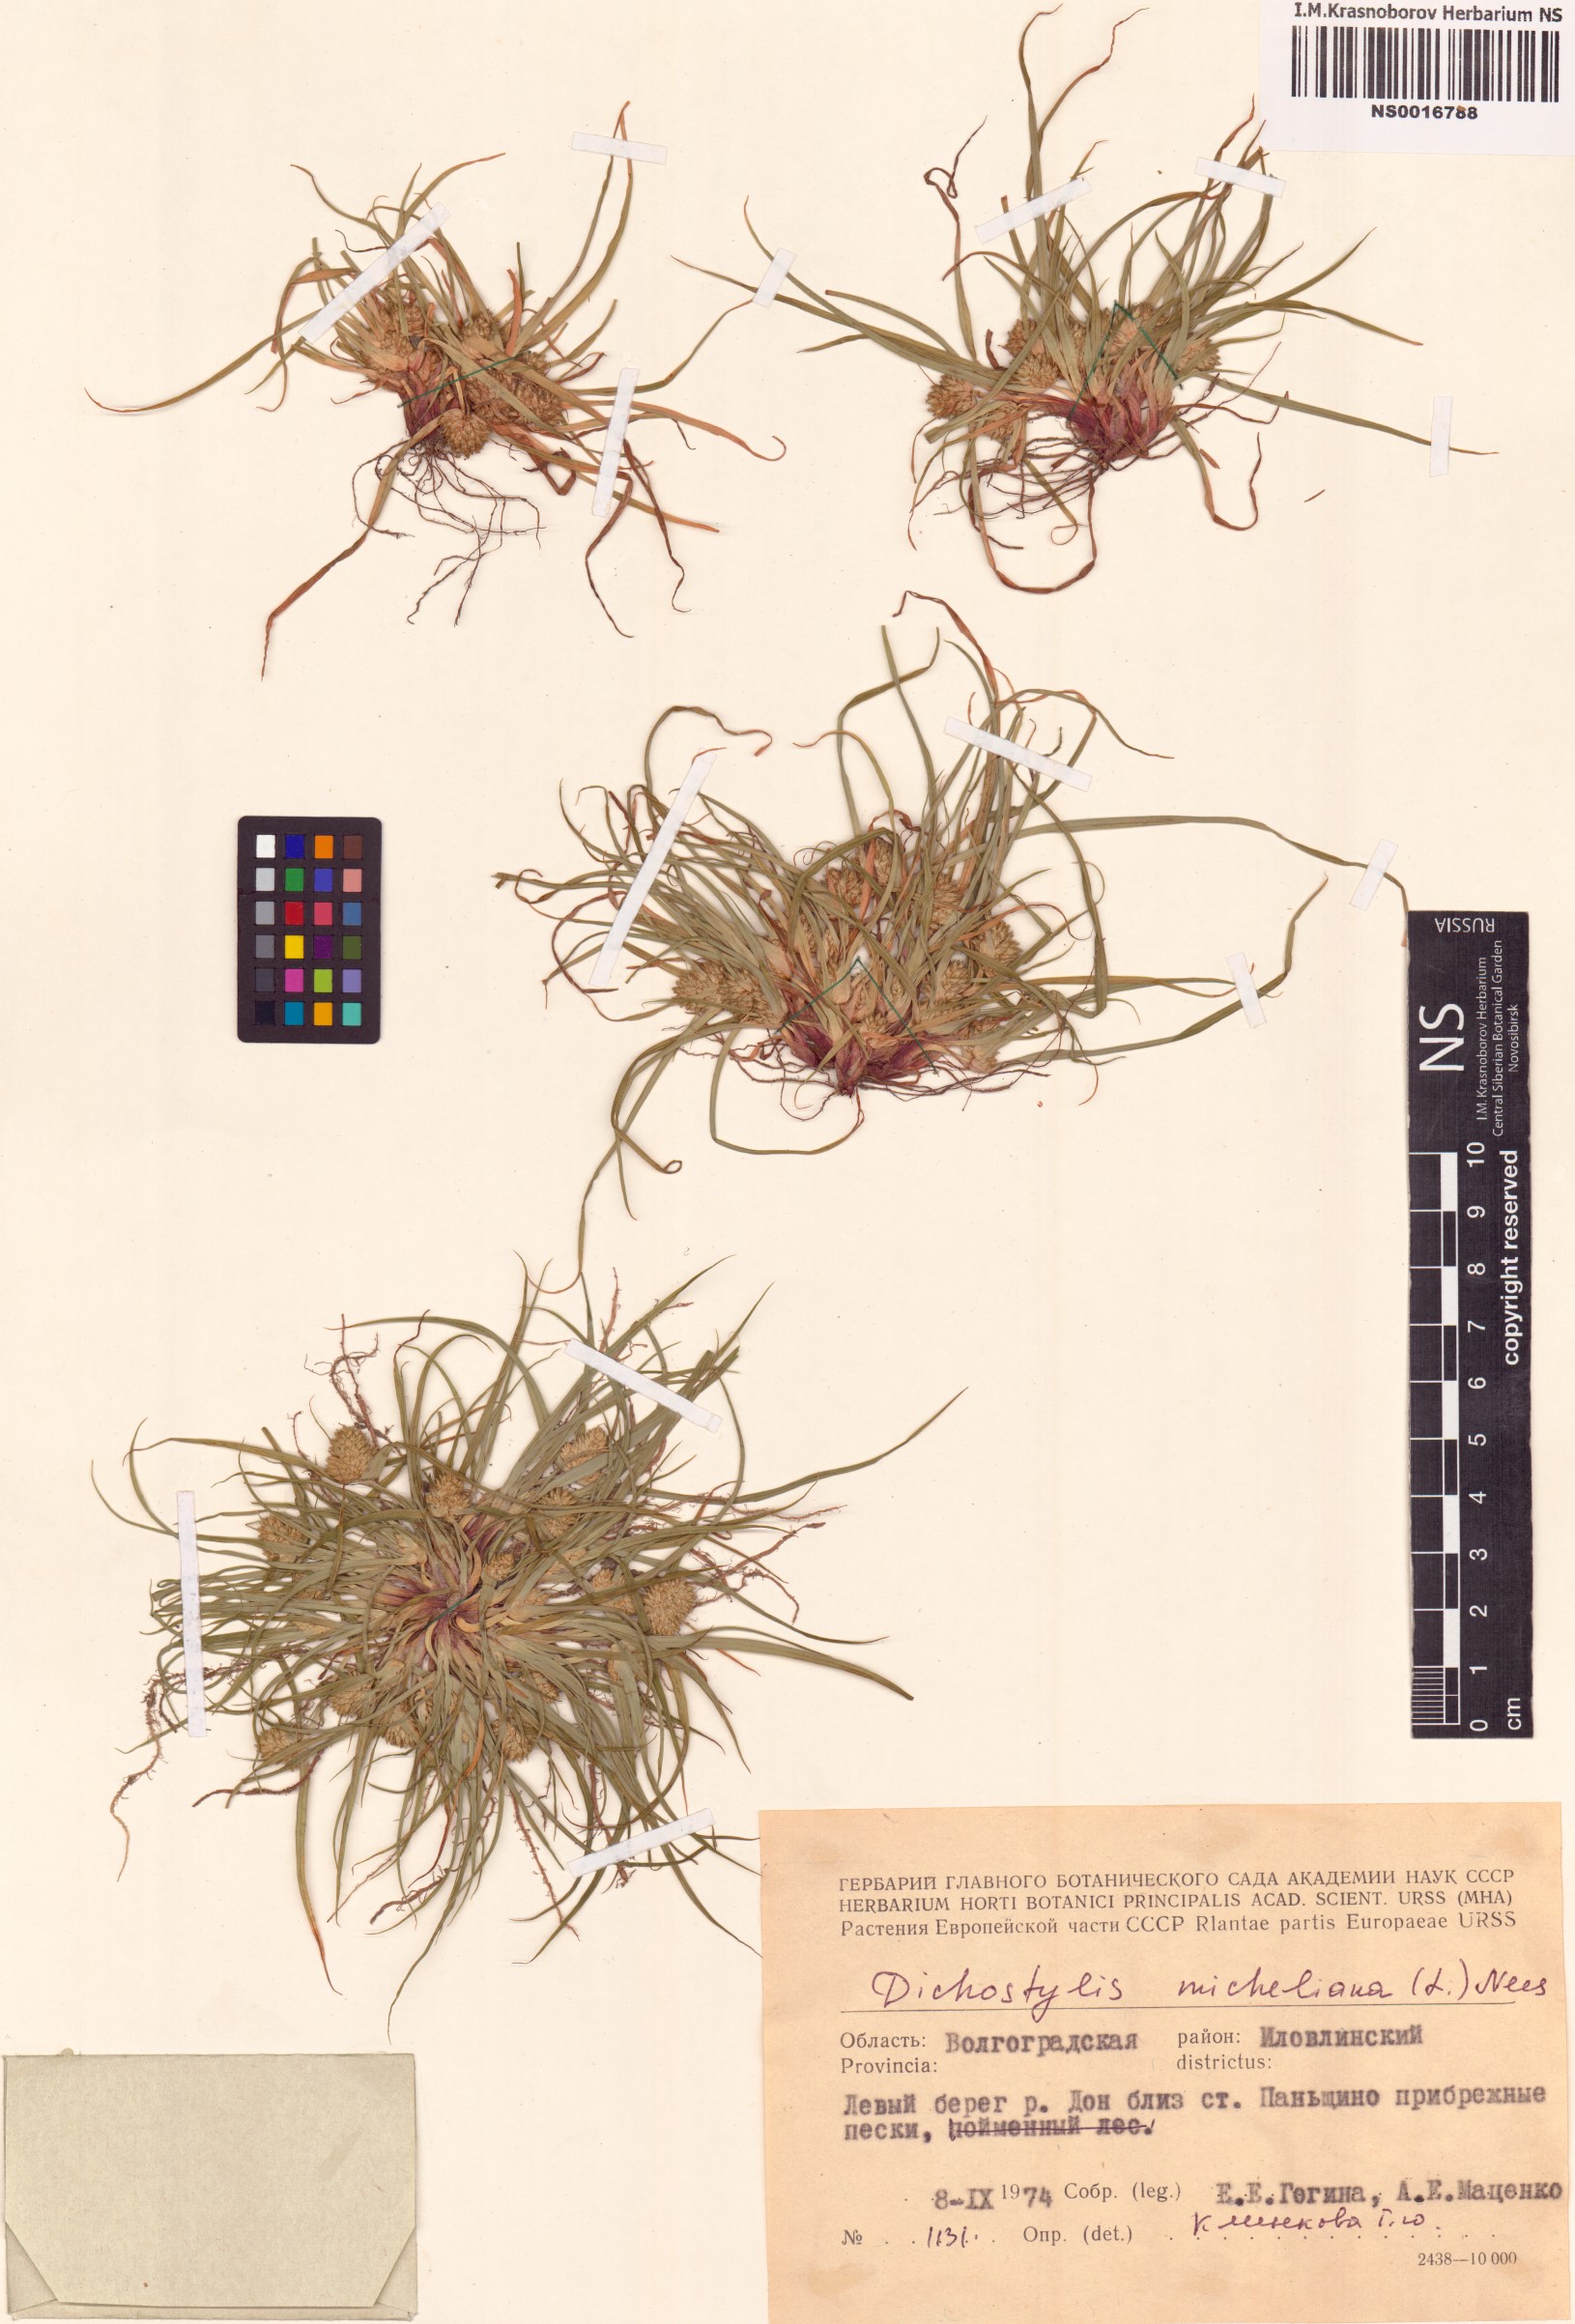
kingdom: Plantae
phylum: Tracheophyta
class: Liliopsida
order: Poales
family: Cyperaceae
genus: Cyperus
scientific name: Cyperus michelianus
